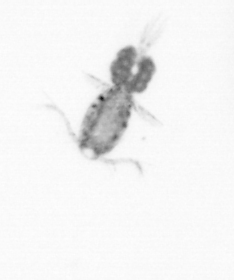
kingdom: Animalia
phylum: Arthropoda
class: Copepoda
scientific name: Copepoda
